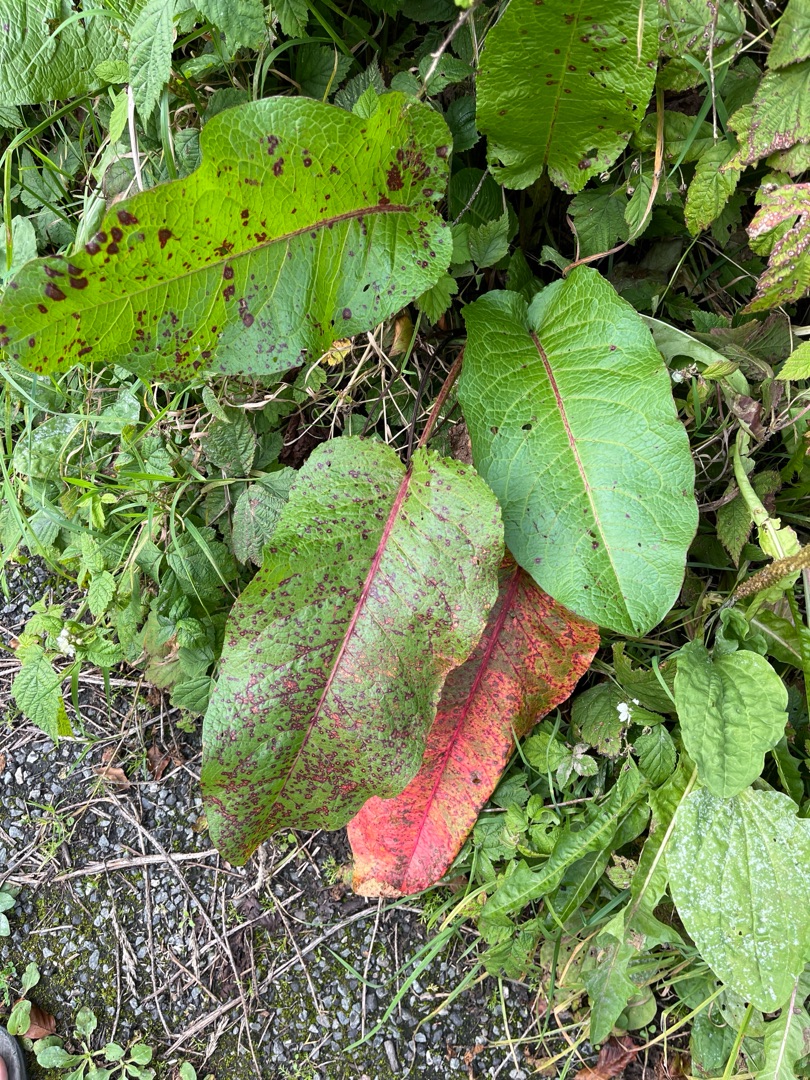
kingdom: Plantae
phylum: Tracheophyta
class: Magnoliopsida
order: Caryophyllales
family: Polygonaceae
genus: Rumex
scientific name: Rumex obtusifolius
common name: Butbladet skræppe
